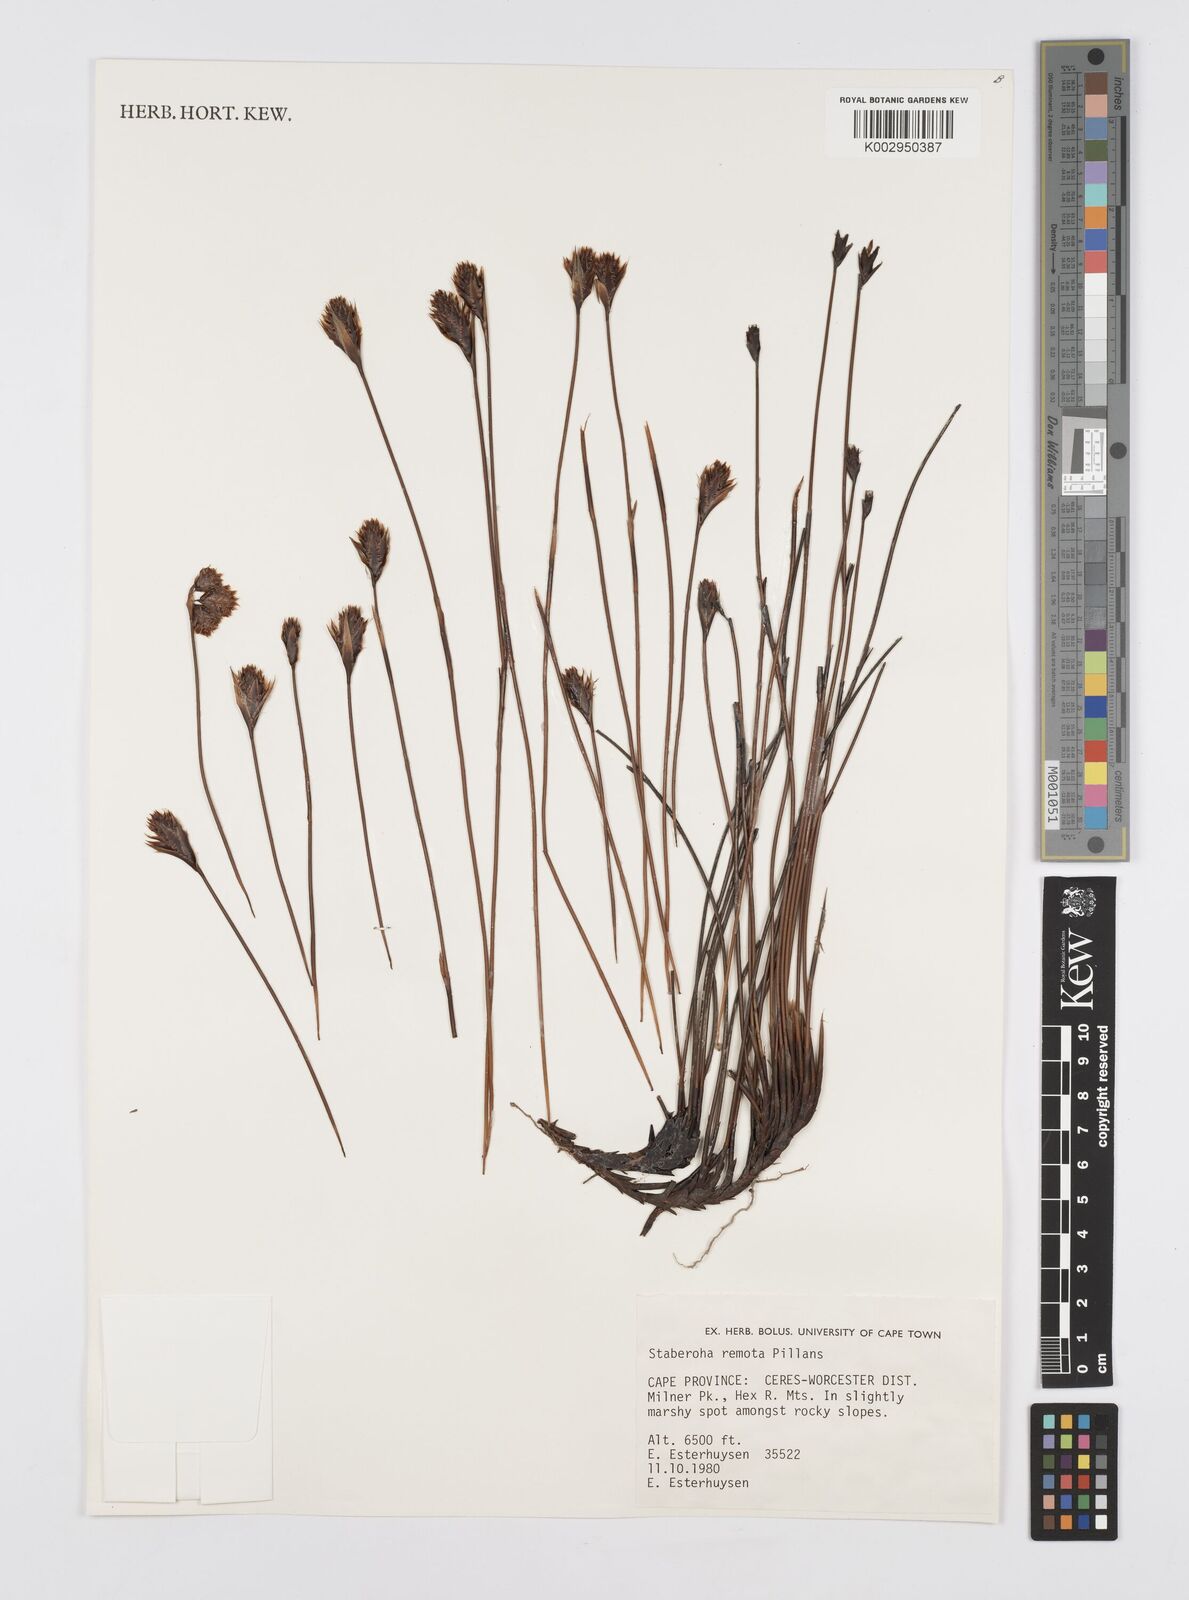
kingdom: Plantae
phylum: Tracheophyta
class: Liliopsida
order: Poales
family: Restionaceae
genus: Staberoha
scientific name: Staberoha remota
